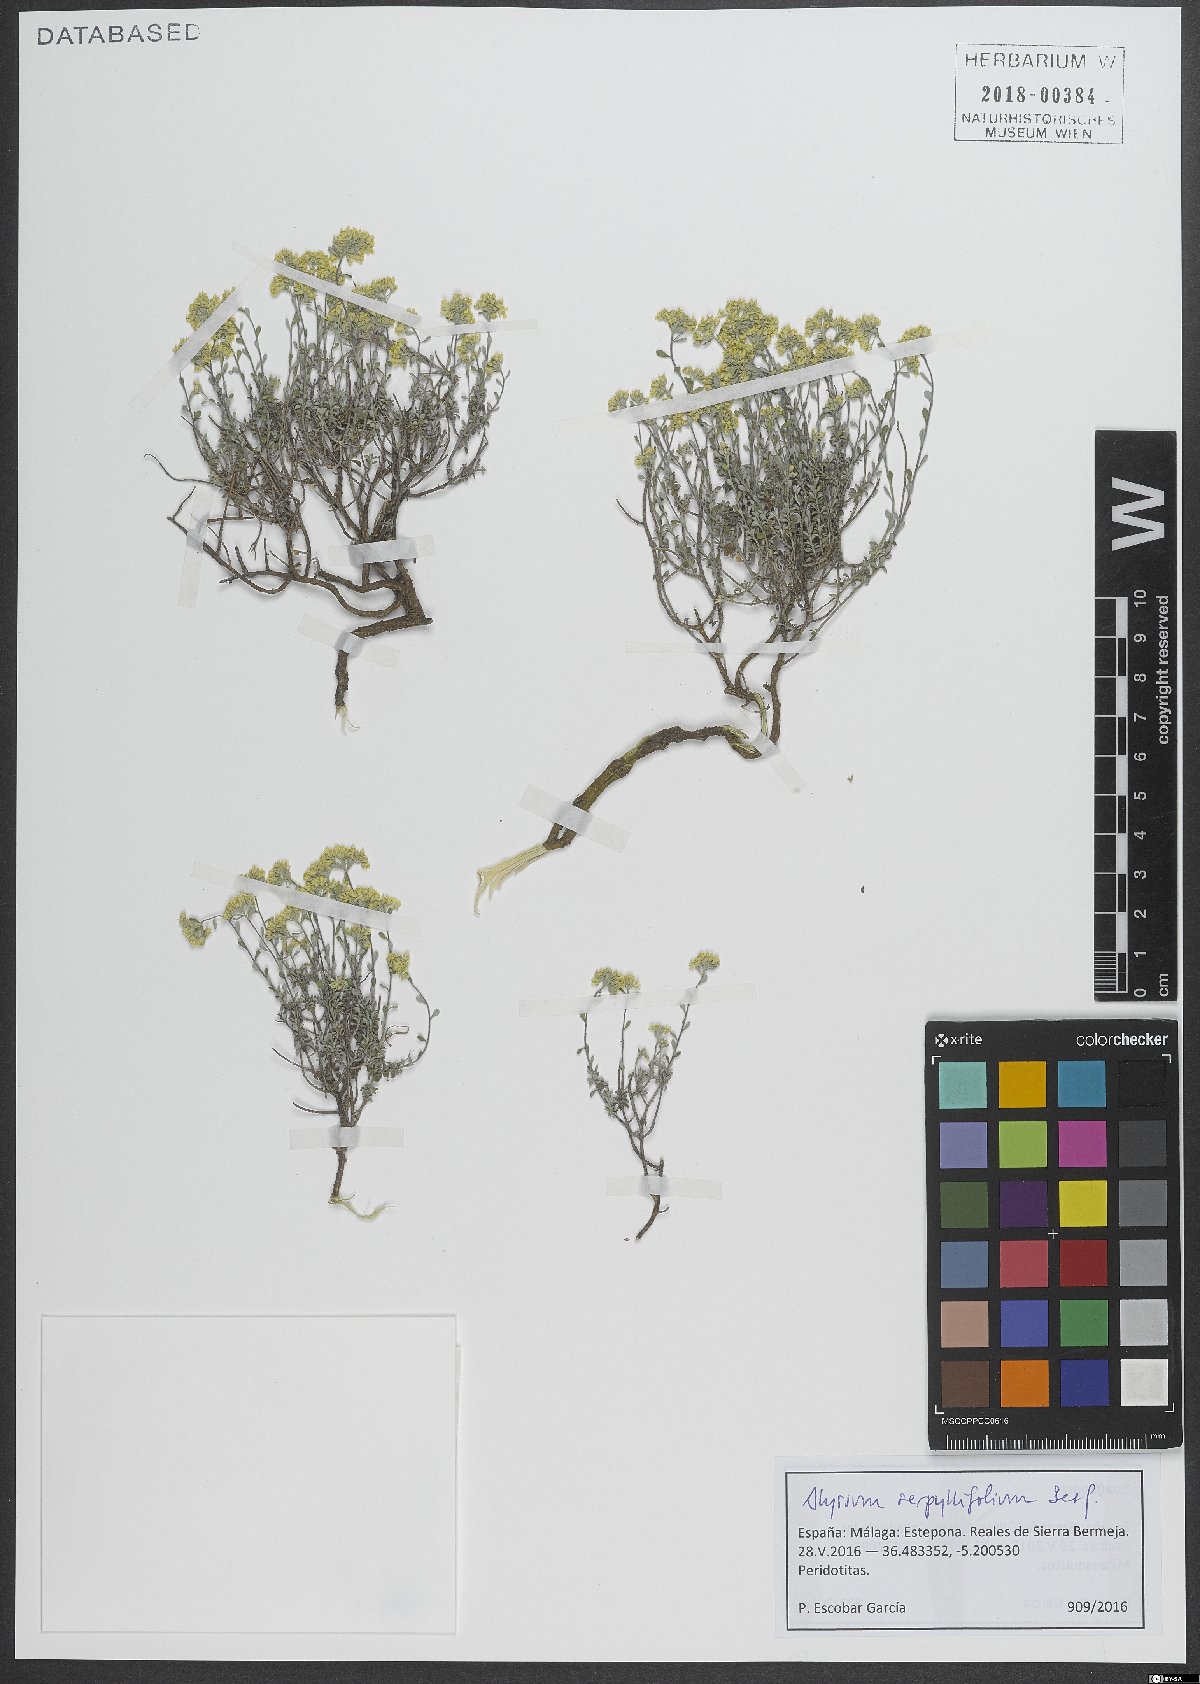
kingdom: Plantae
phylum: Tracheophyta
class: Magnoliopsida
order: Brassicales
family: Brassicaceae
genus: Odontarrhena
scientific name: Odontarrhena serpyllifolia
